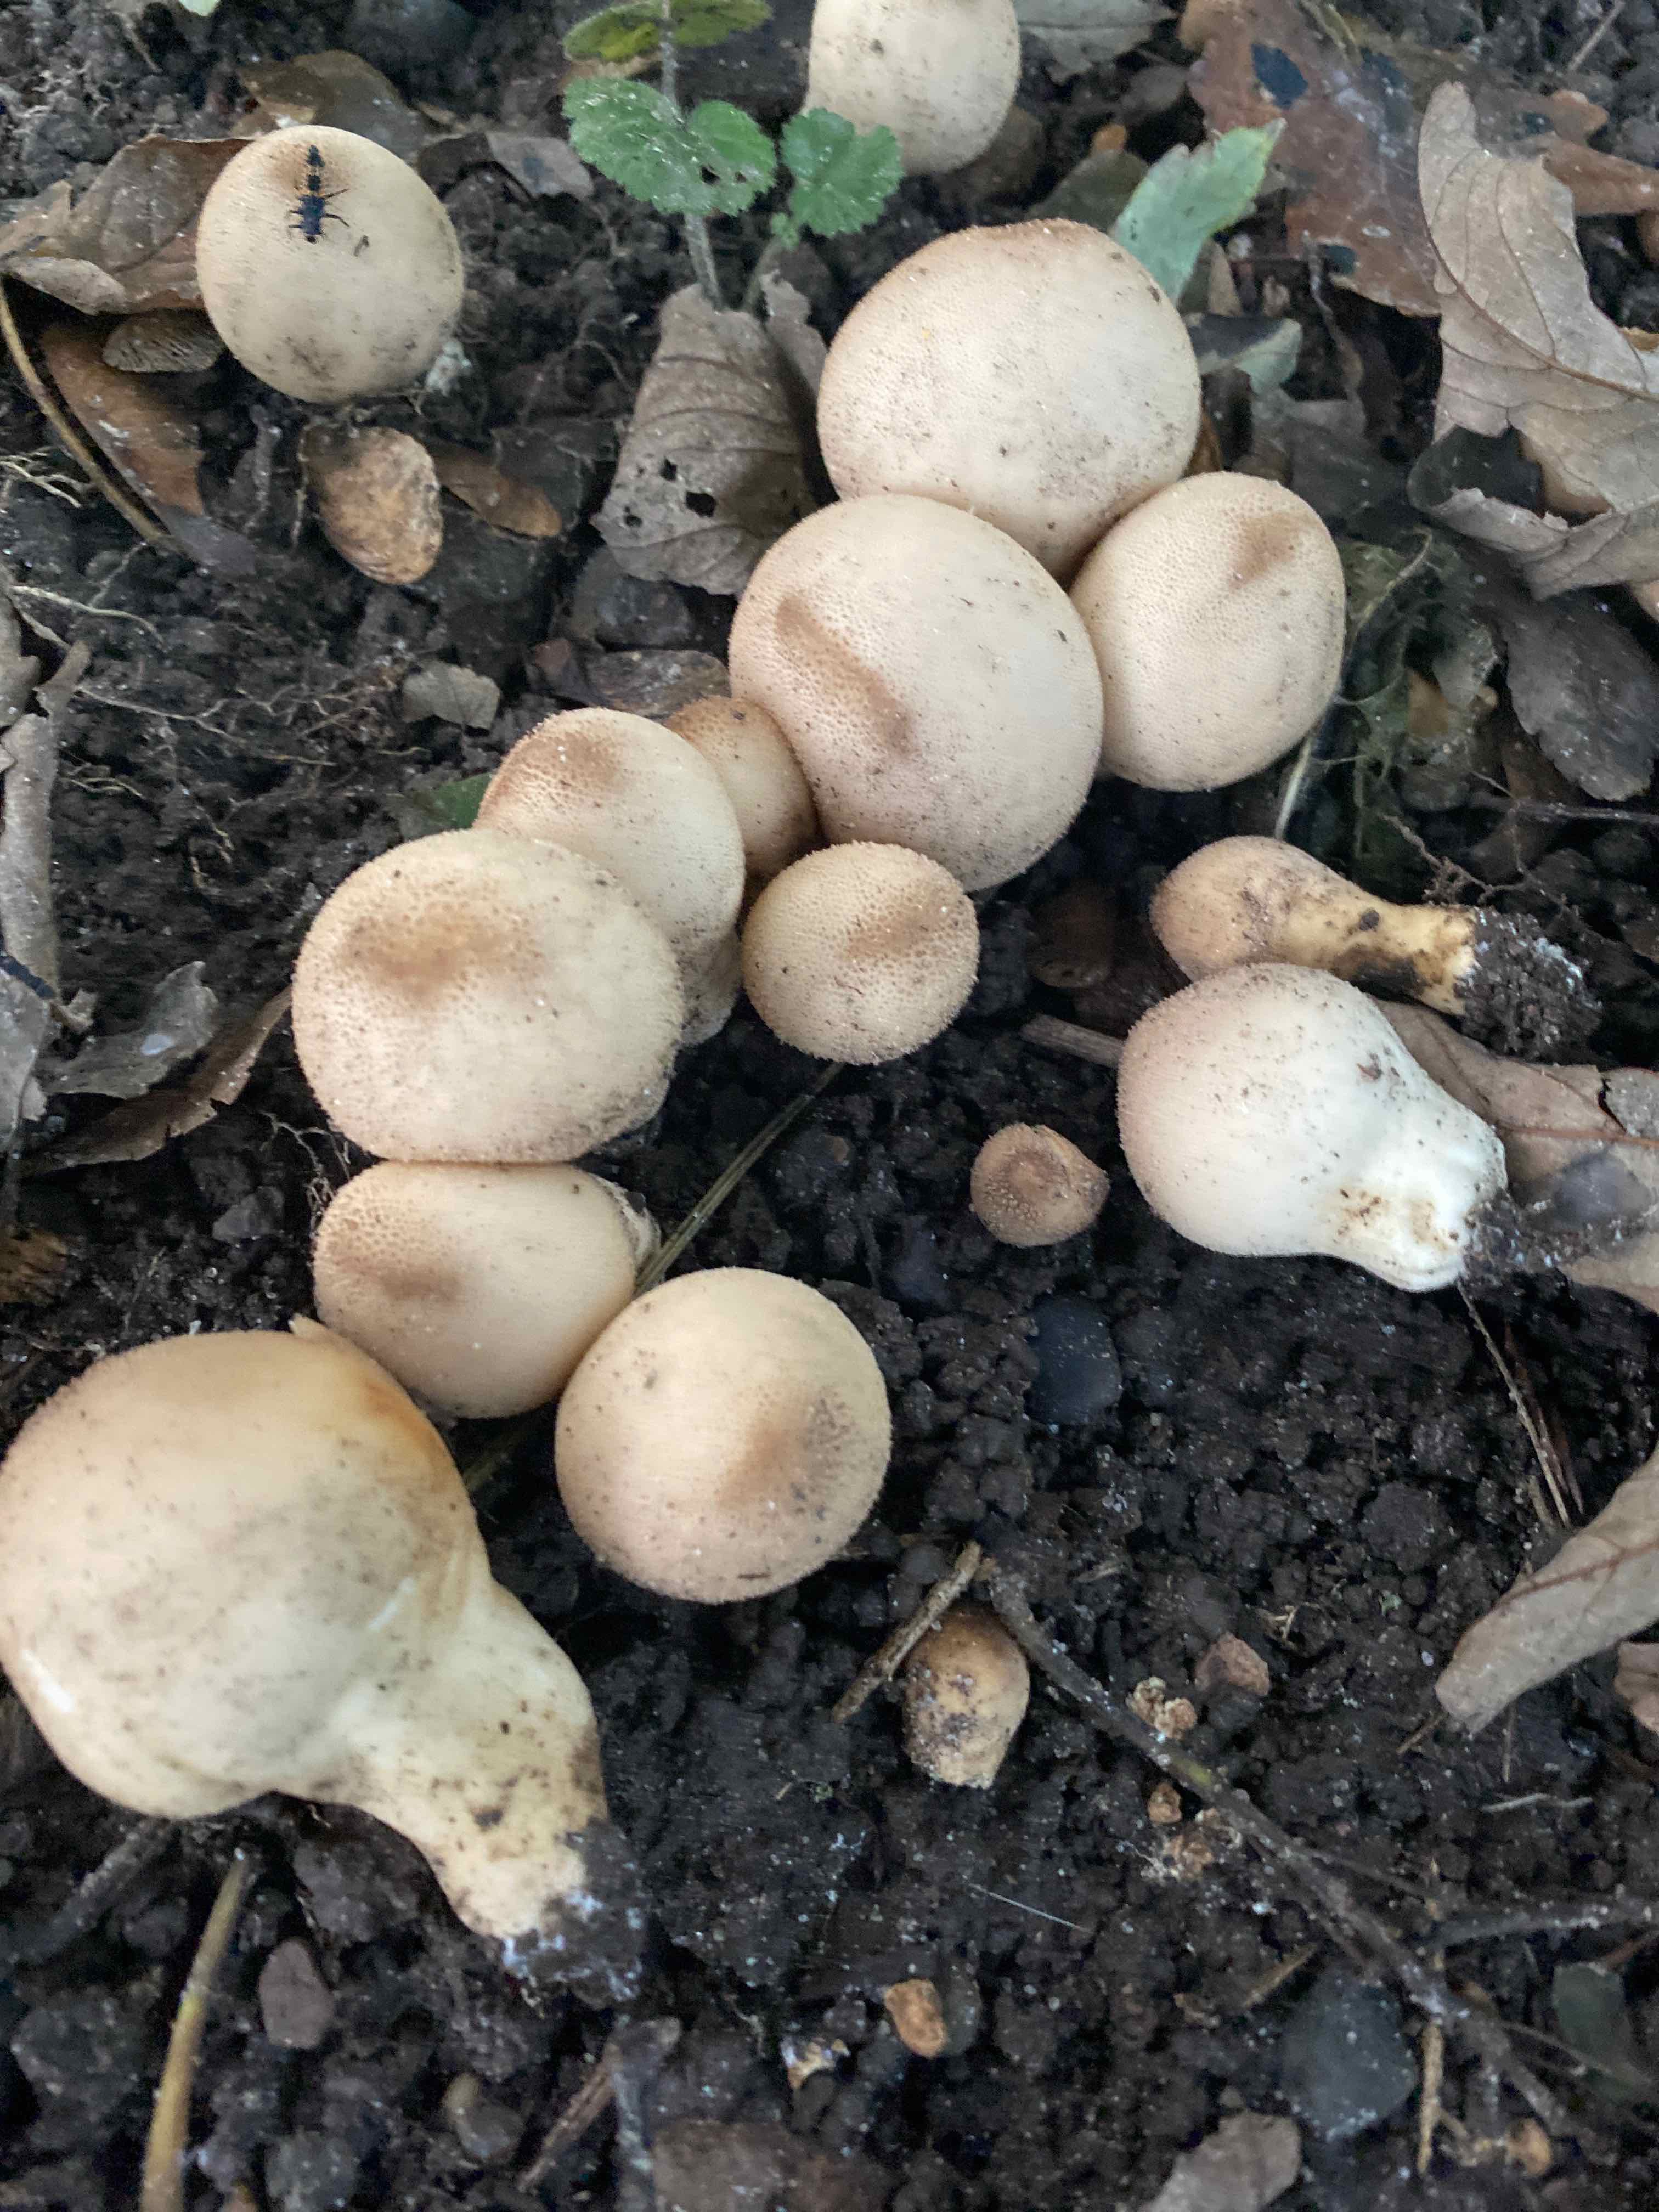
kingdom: Fungi
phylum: Basidiomycota
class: Agaricomycetes
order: Agaricales
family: Lycoperdaceae
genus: Apioperdon
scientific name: Apioperdon pyriforme
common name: pære-støvbold
